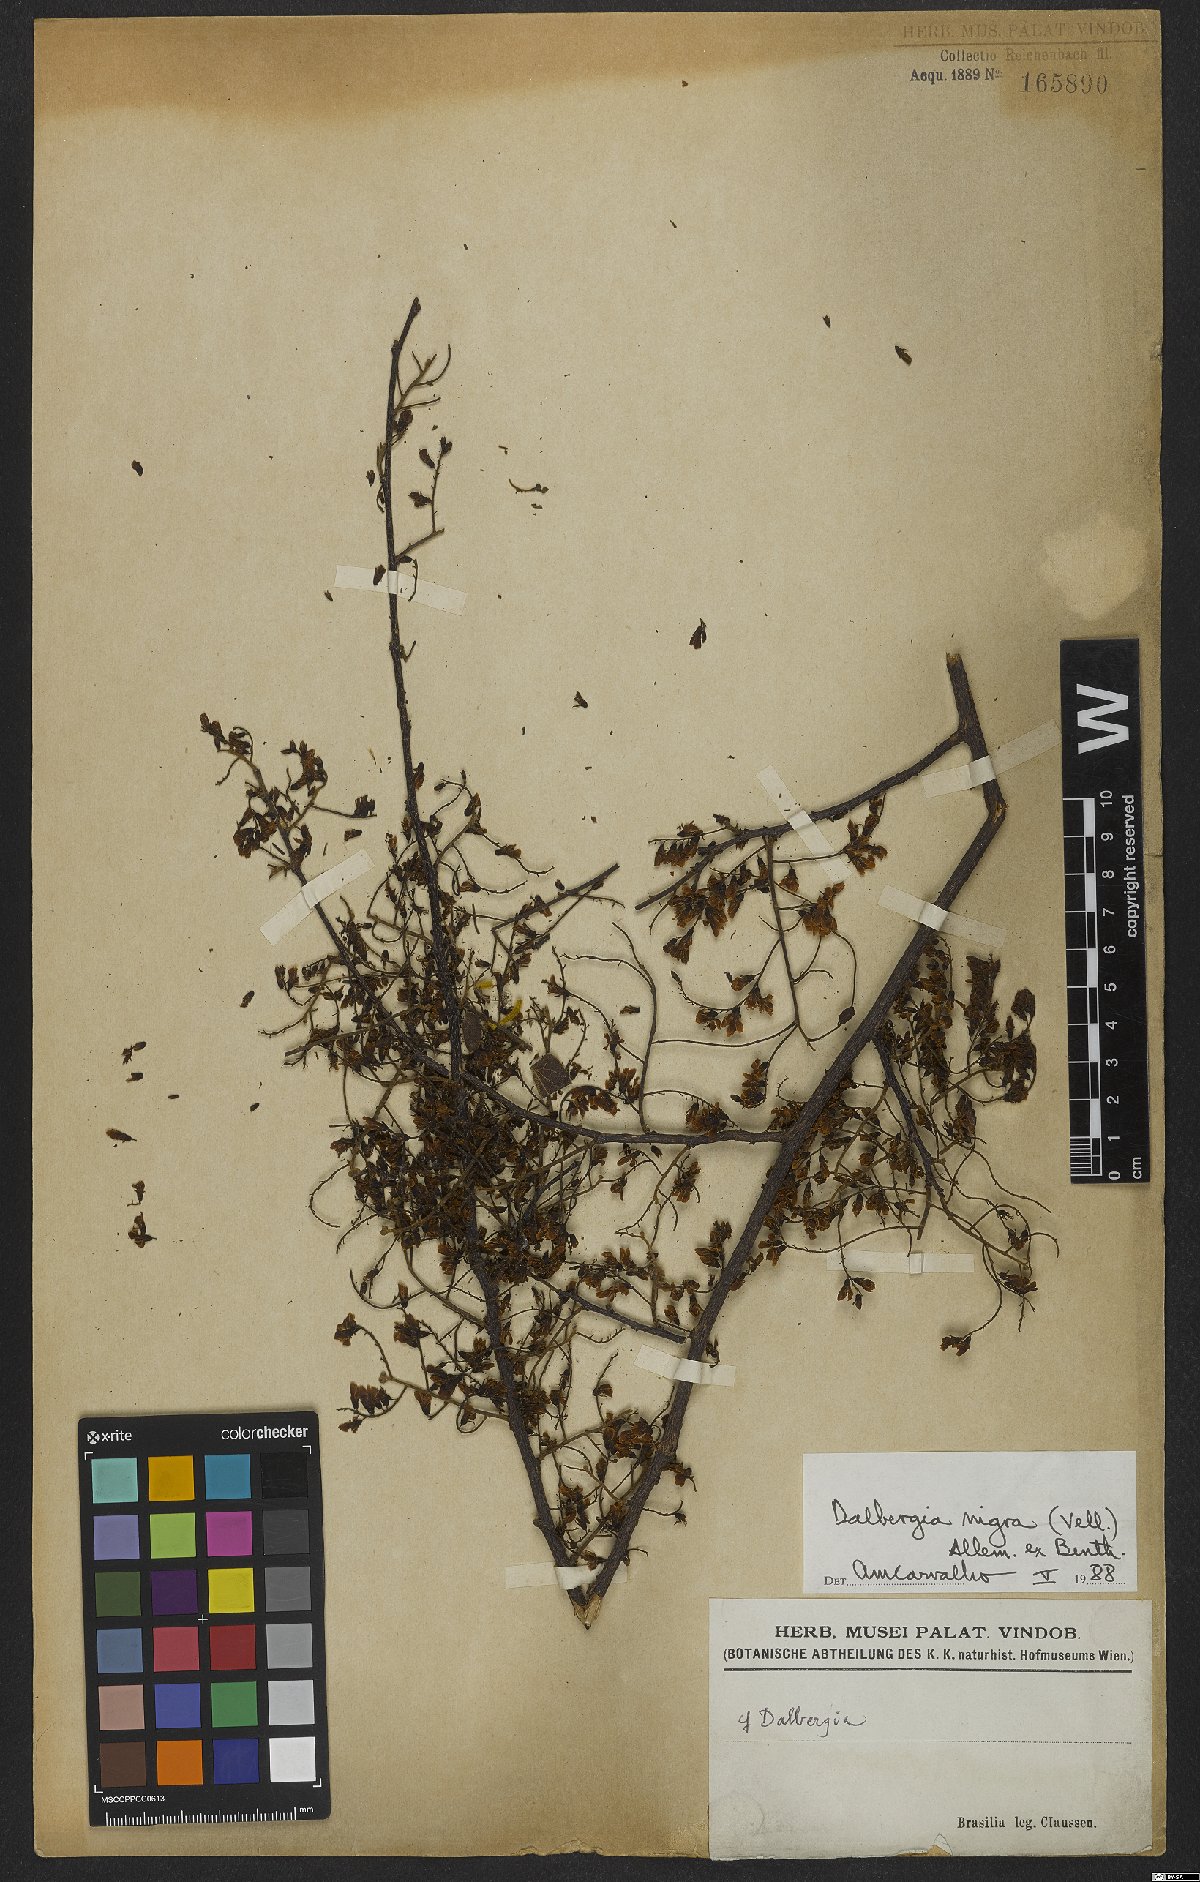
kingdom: Plantae
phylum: Tracheophyta
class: Magnoliopsida
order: Fabales
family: Fabaceae
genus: Dalbergia
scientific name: Dalbergia nigra
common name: Bahia rosewood
